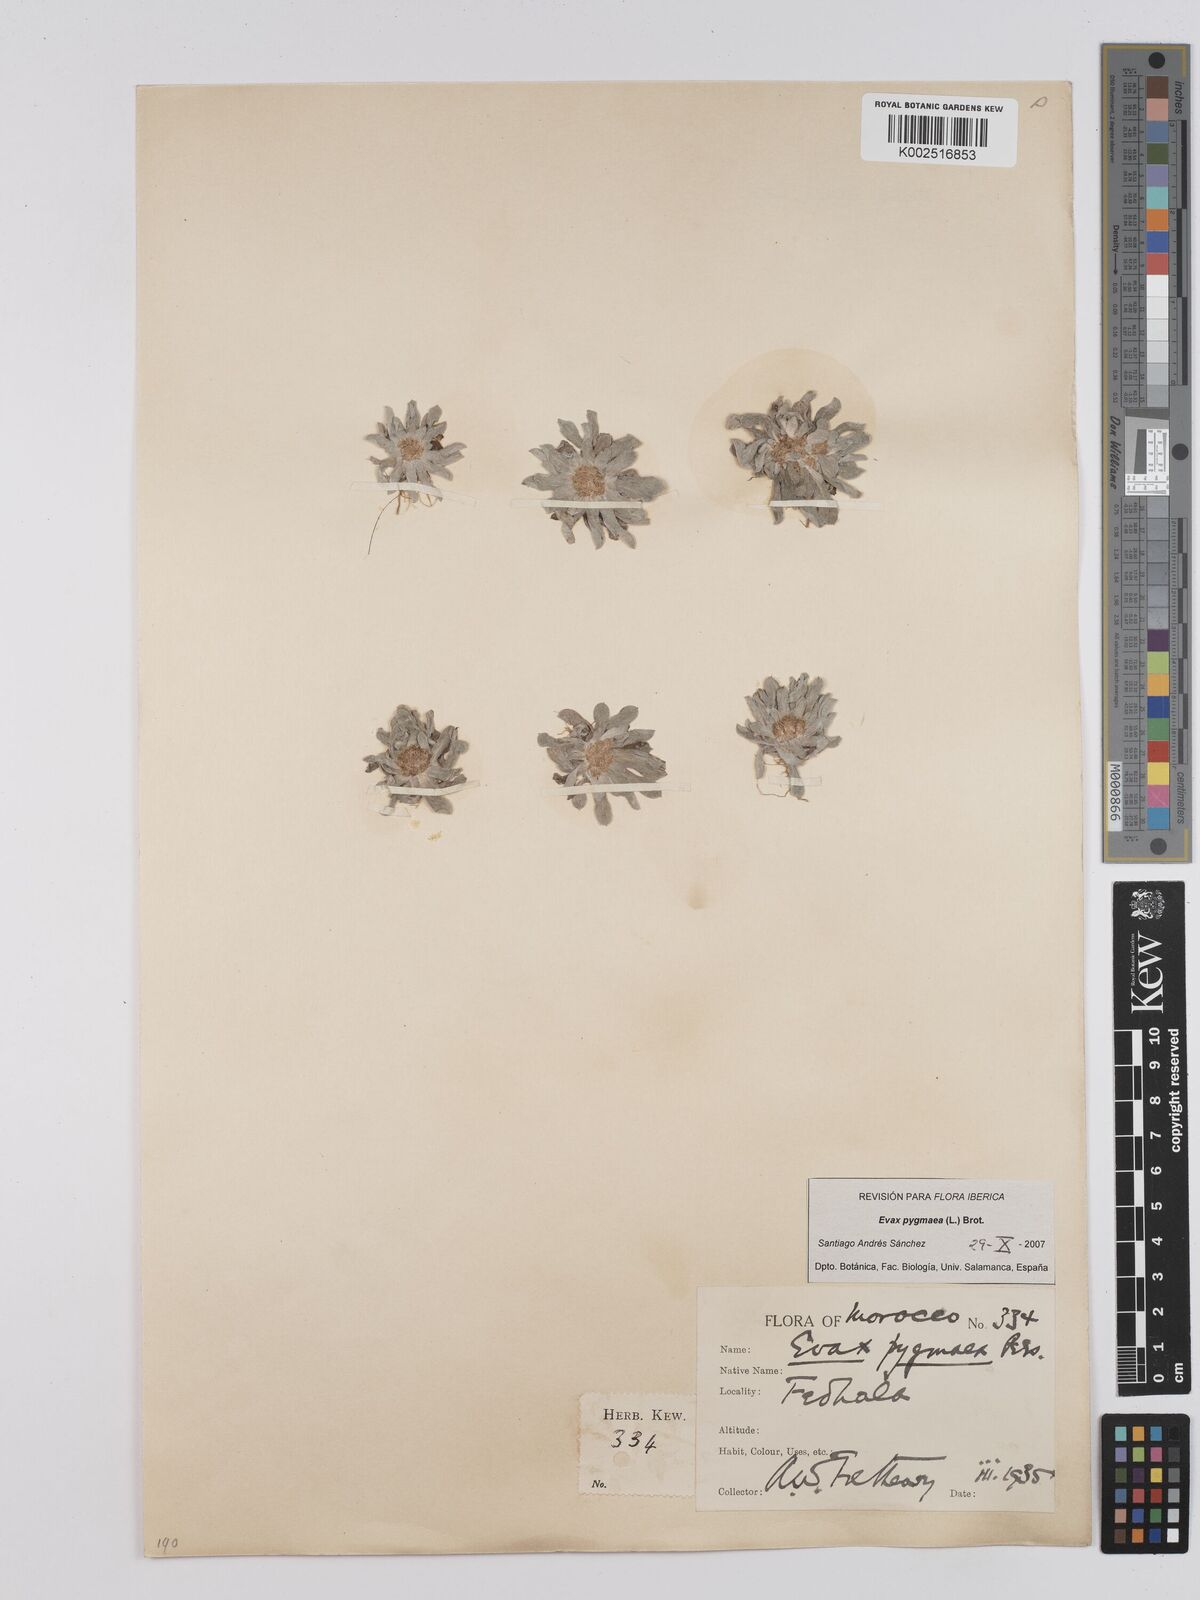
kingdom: Plantae
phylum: Tracheophyta
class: Magnoliopsida
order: Asterales
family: Asteraceae
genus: Filago
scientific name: Filago pygmaea
